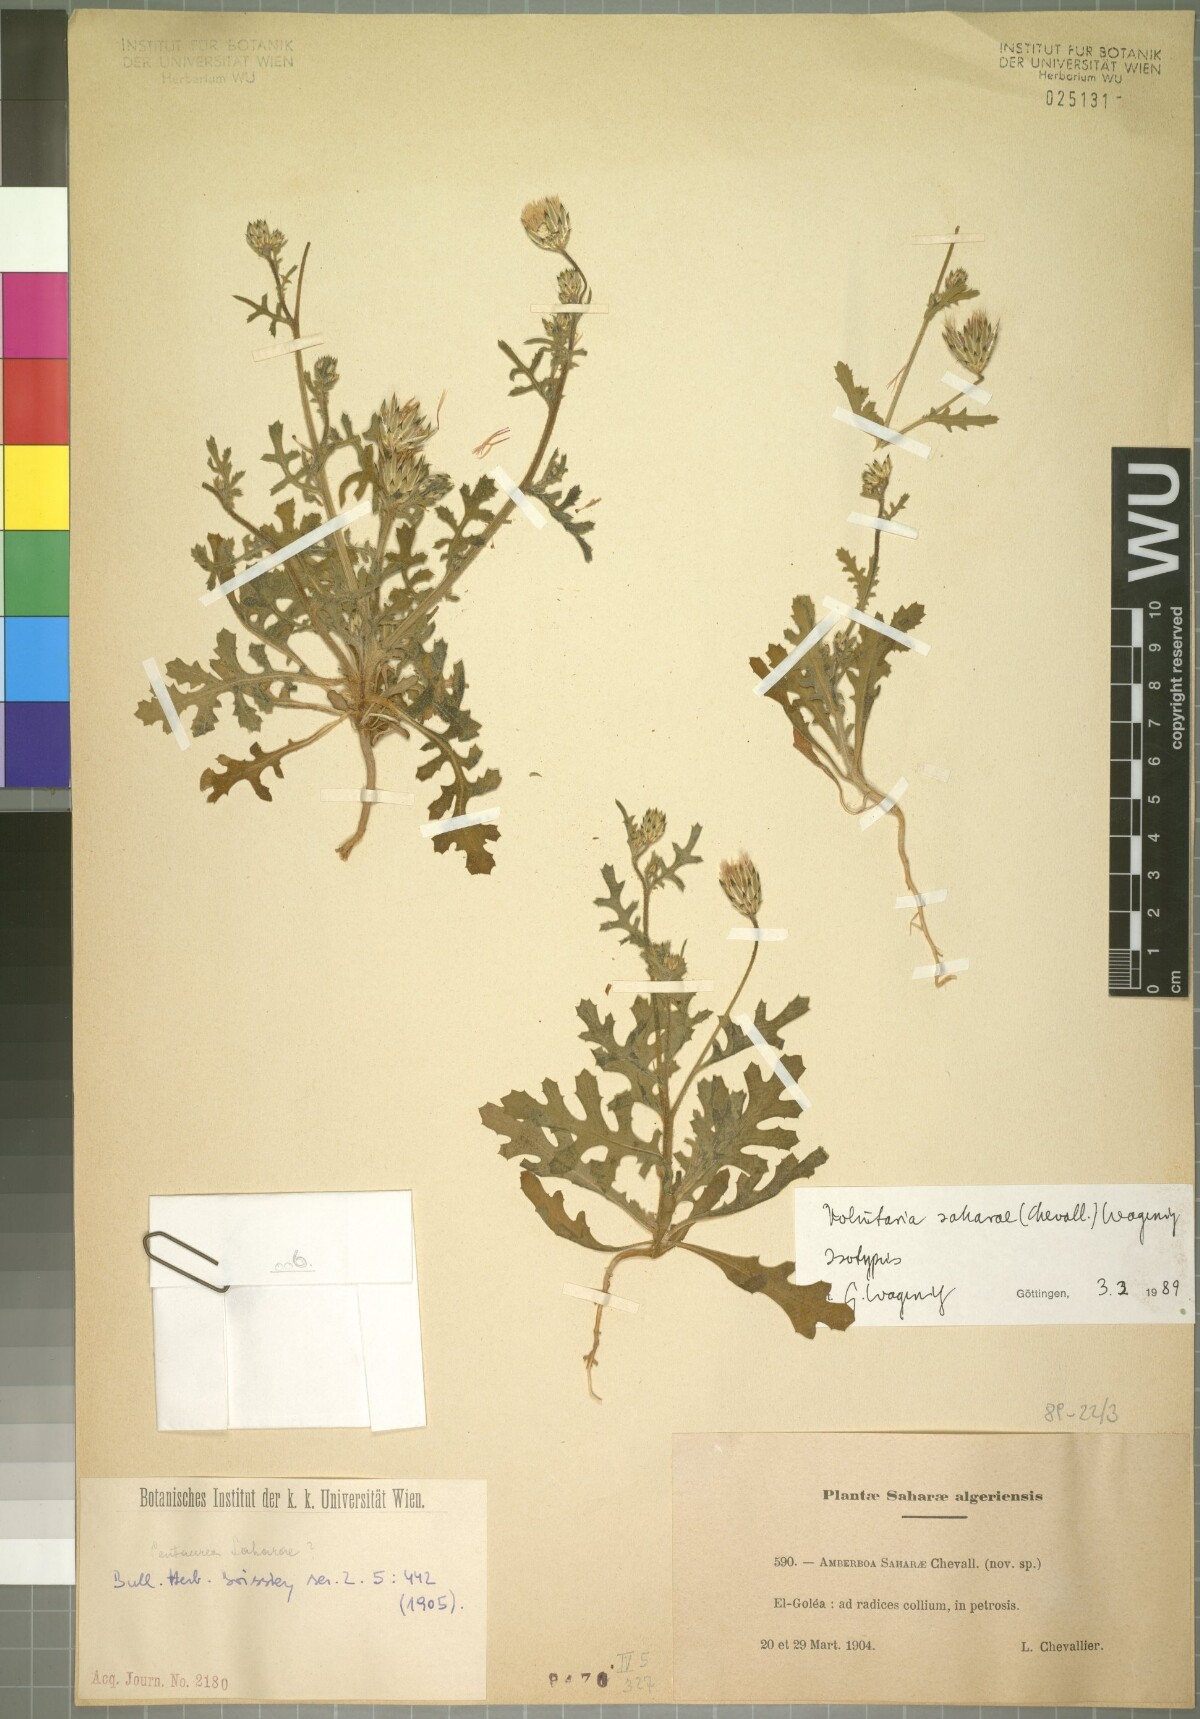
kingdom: Plantae
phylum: Tracheophyta
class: Magnoliopsida
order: Asterales
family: Asteraceae
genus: Volutaria
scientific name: Volutaria saharae
